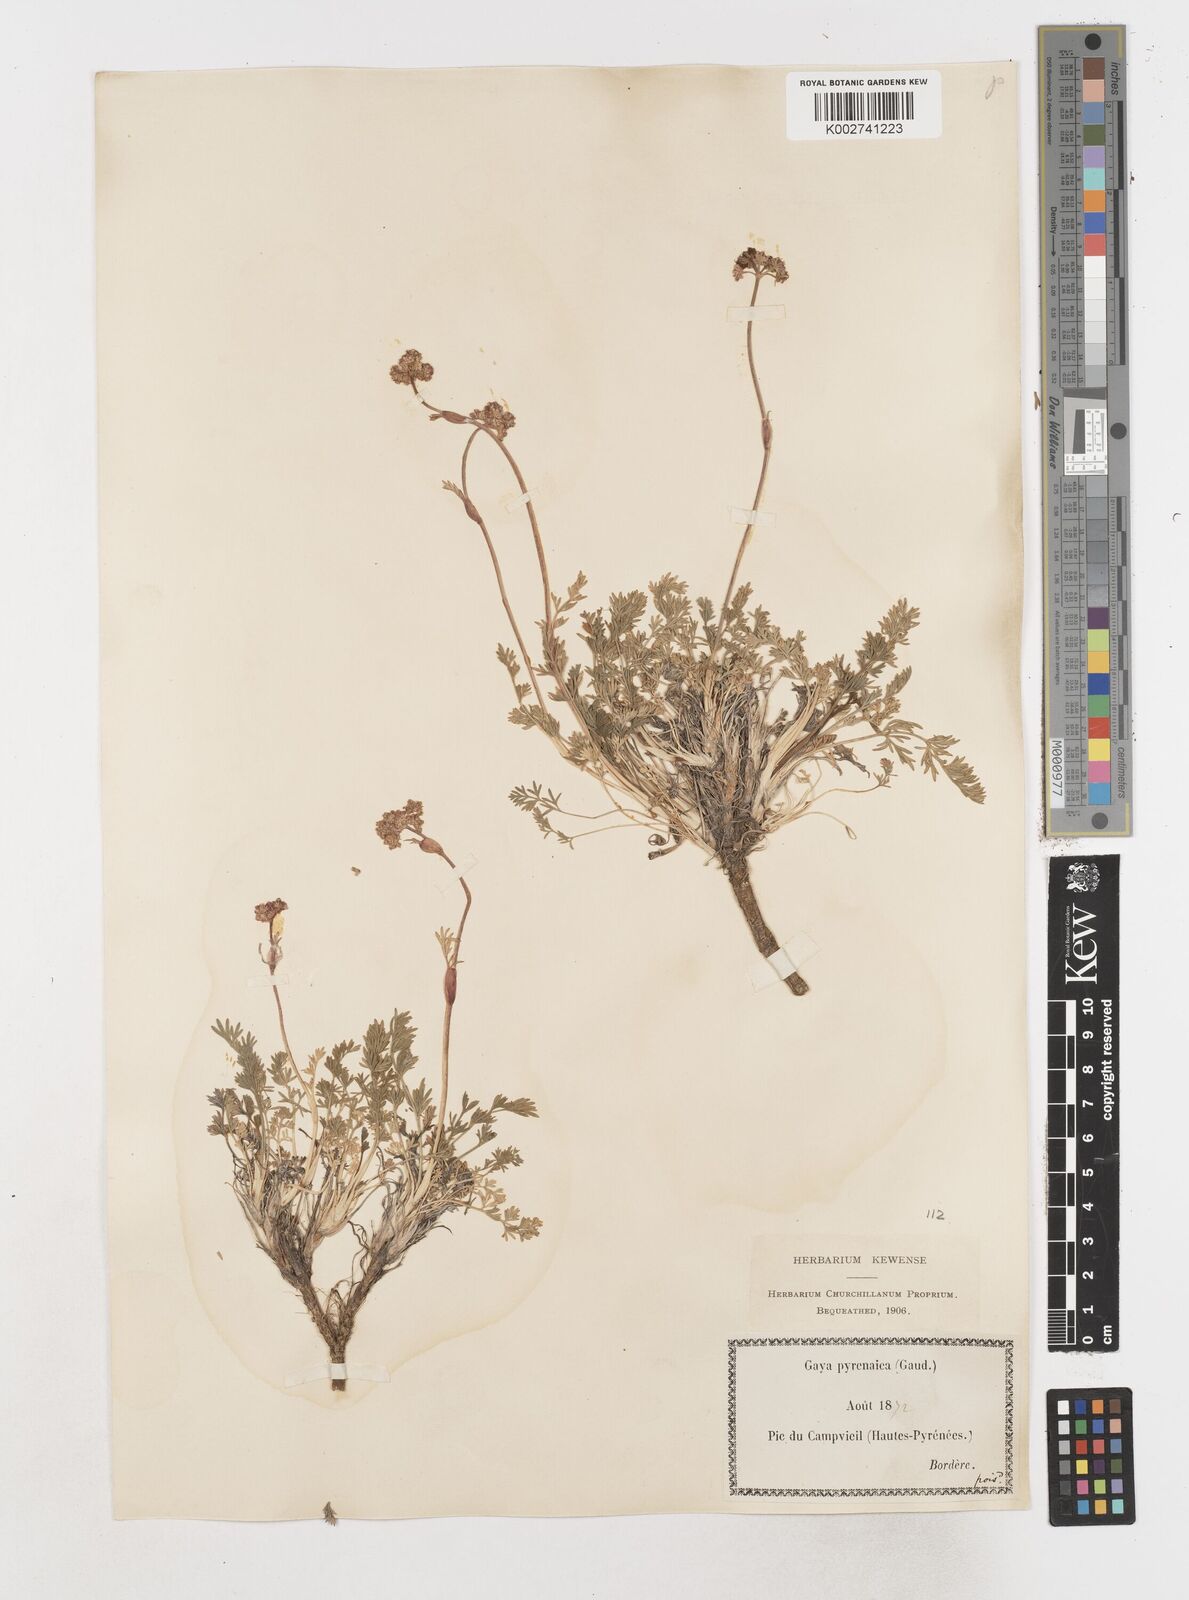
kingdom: Plantae
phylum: Tracheophyta
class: Magnoliopsida
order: Apiales
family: Apiaceae
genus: Pachypleurum
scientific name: Pachypleurum mutellinoides
